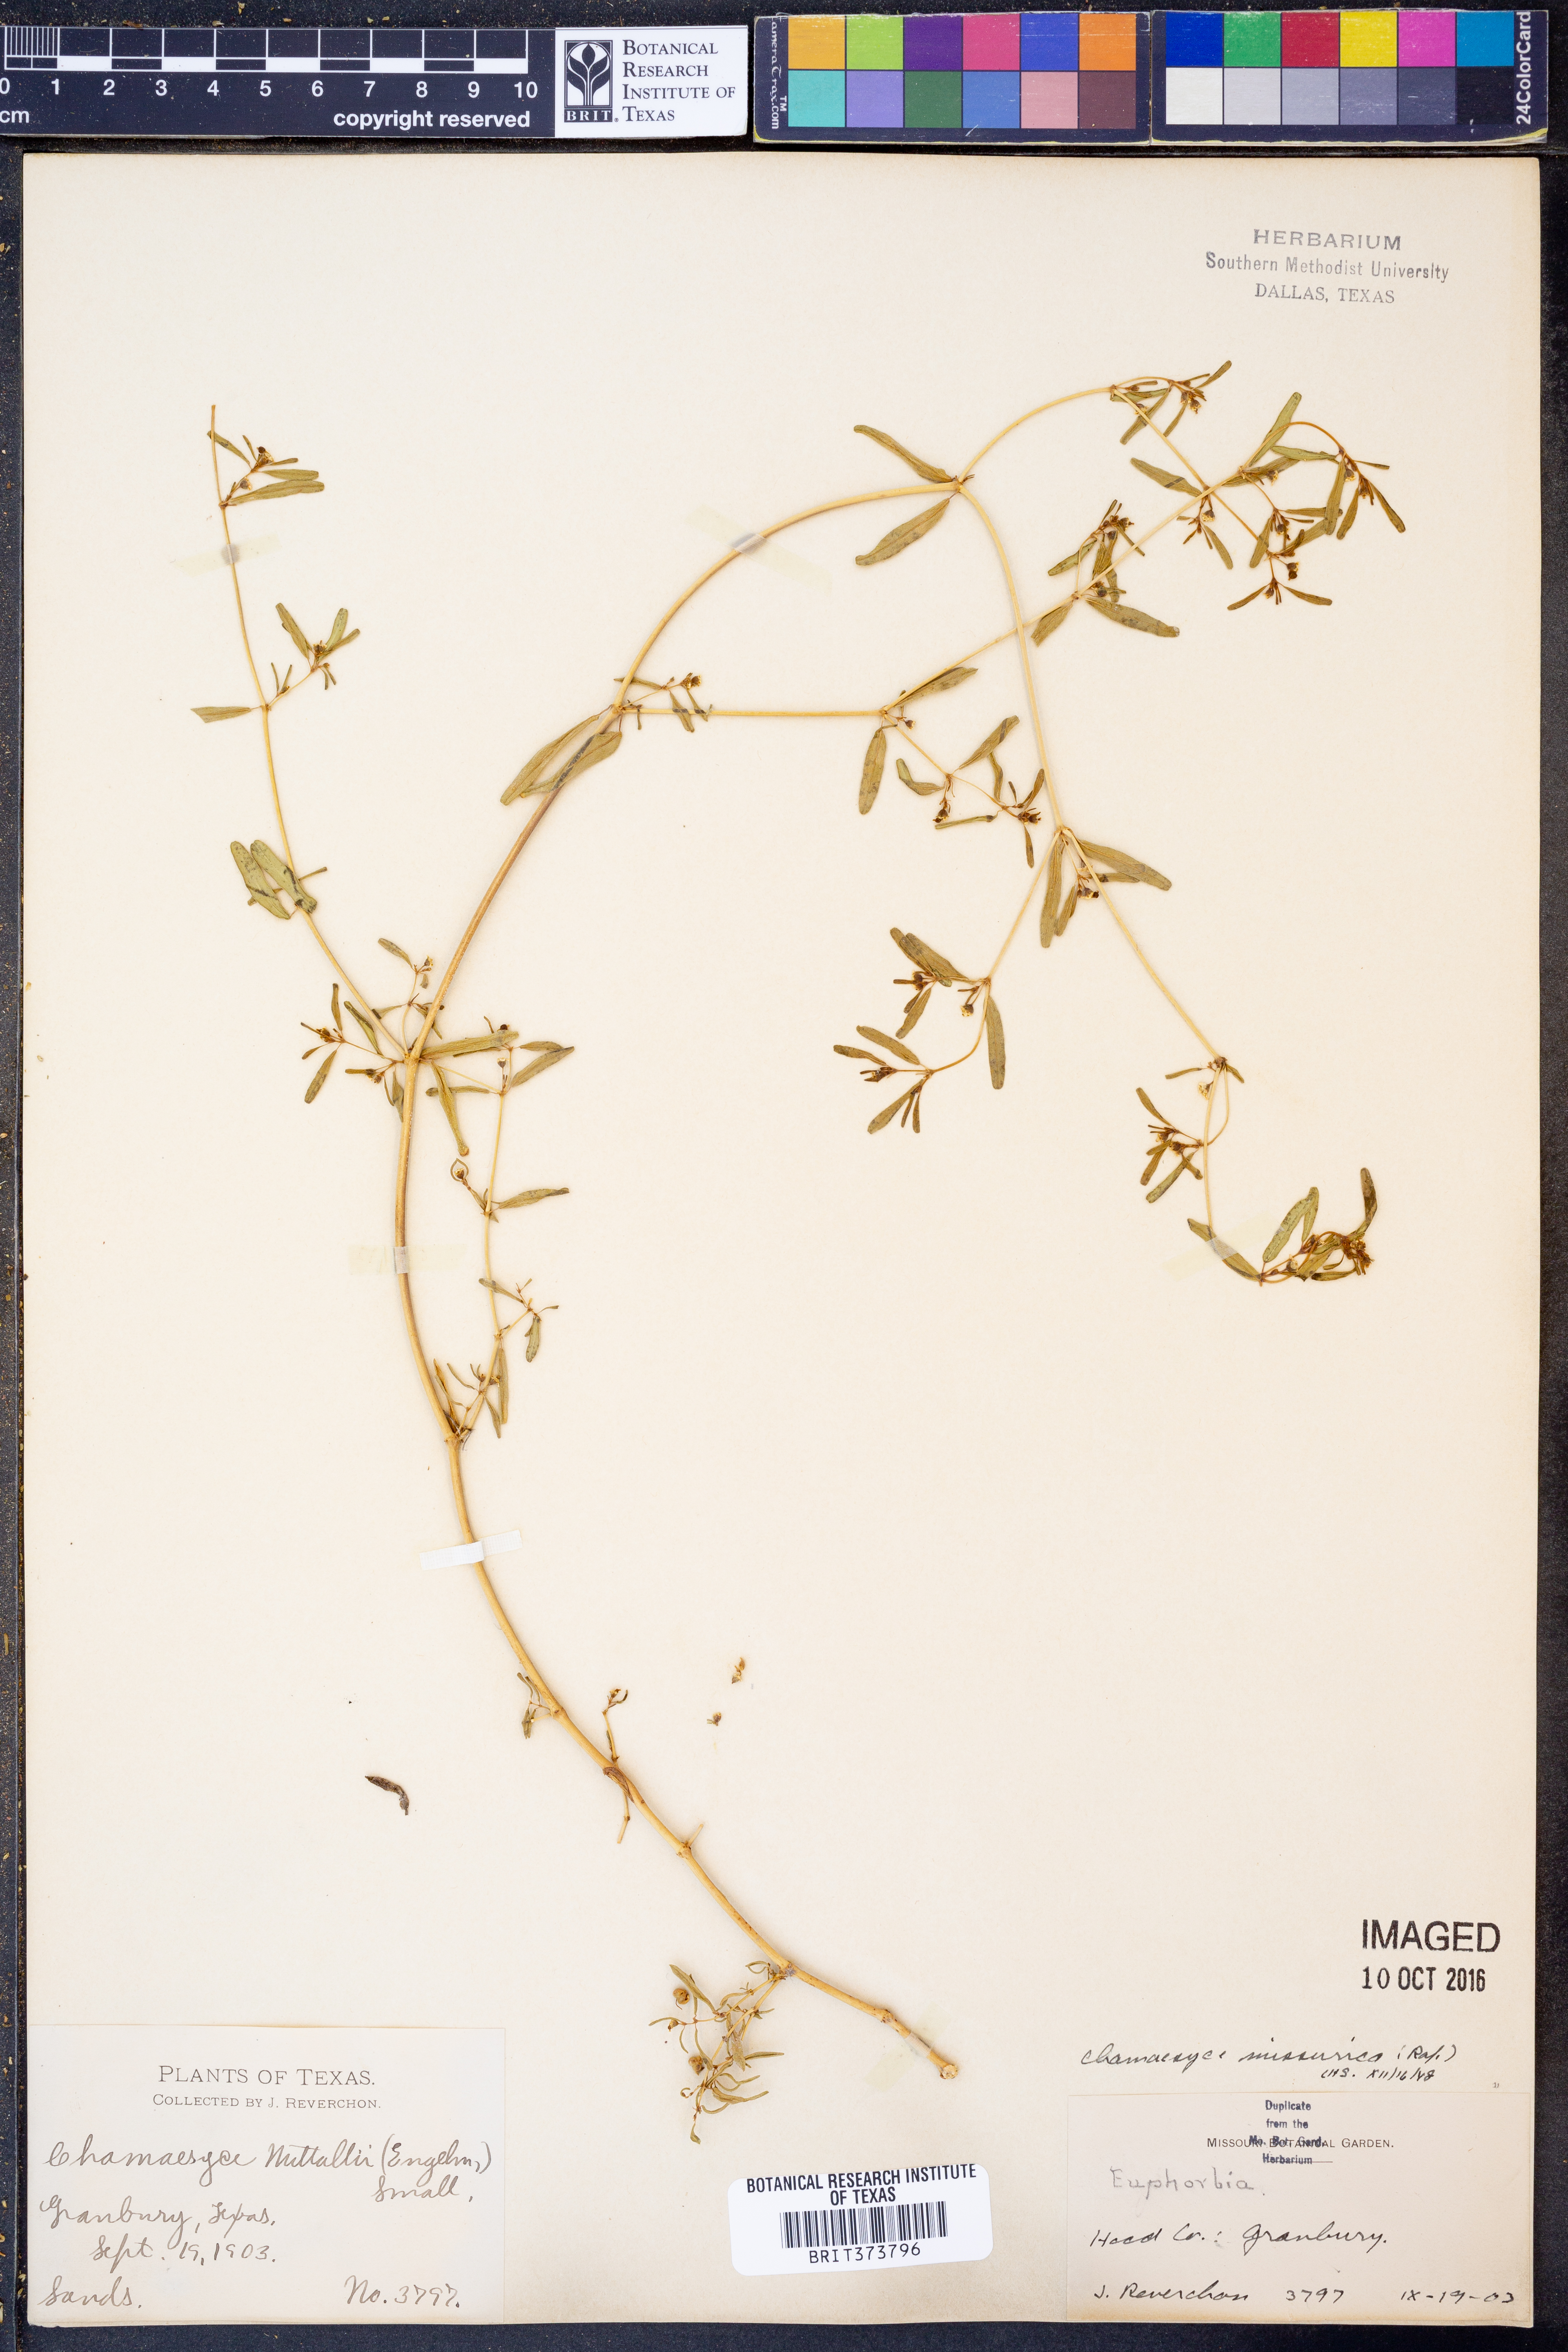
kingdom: Plantae
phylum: Tracheophyta
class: Magnoliopsida
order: Malpighiales
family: Euphorbiaceae
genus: Euphorbia
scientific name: Euphorbia missurica
